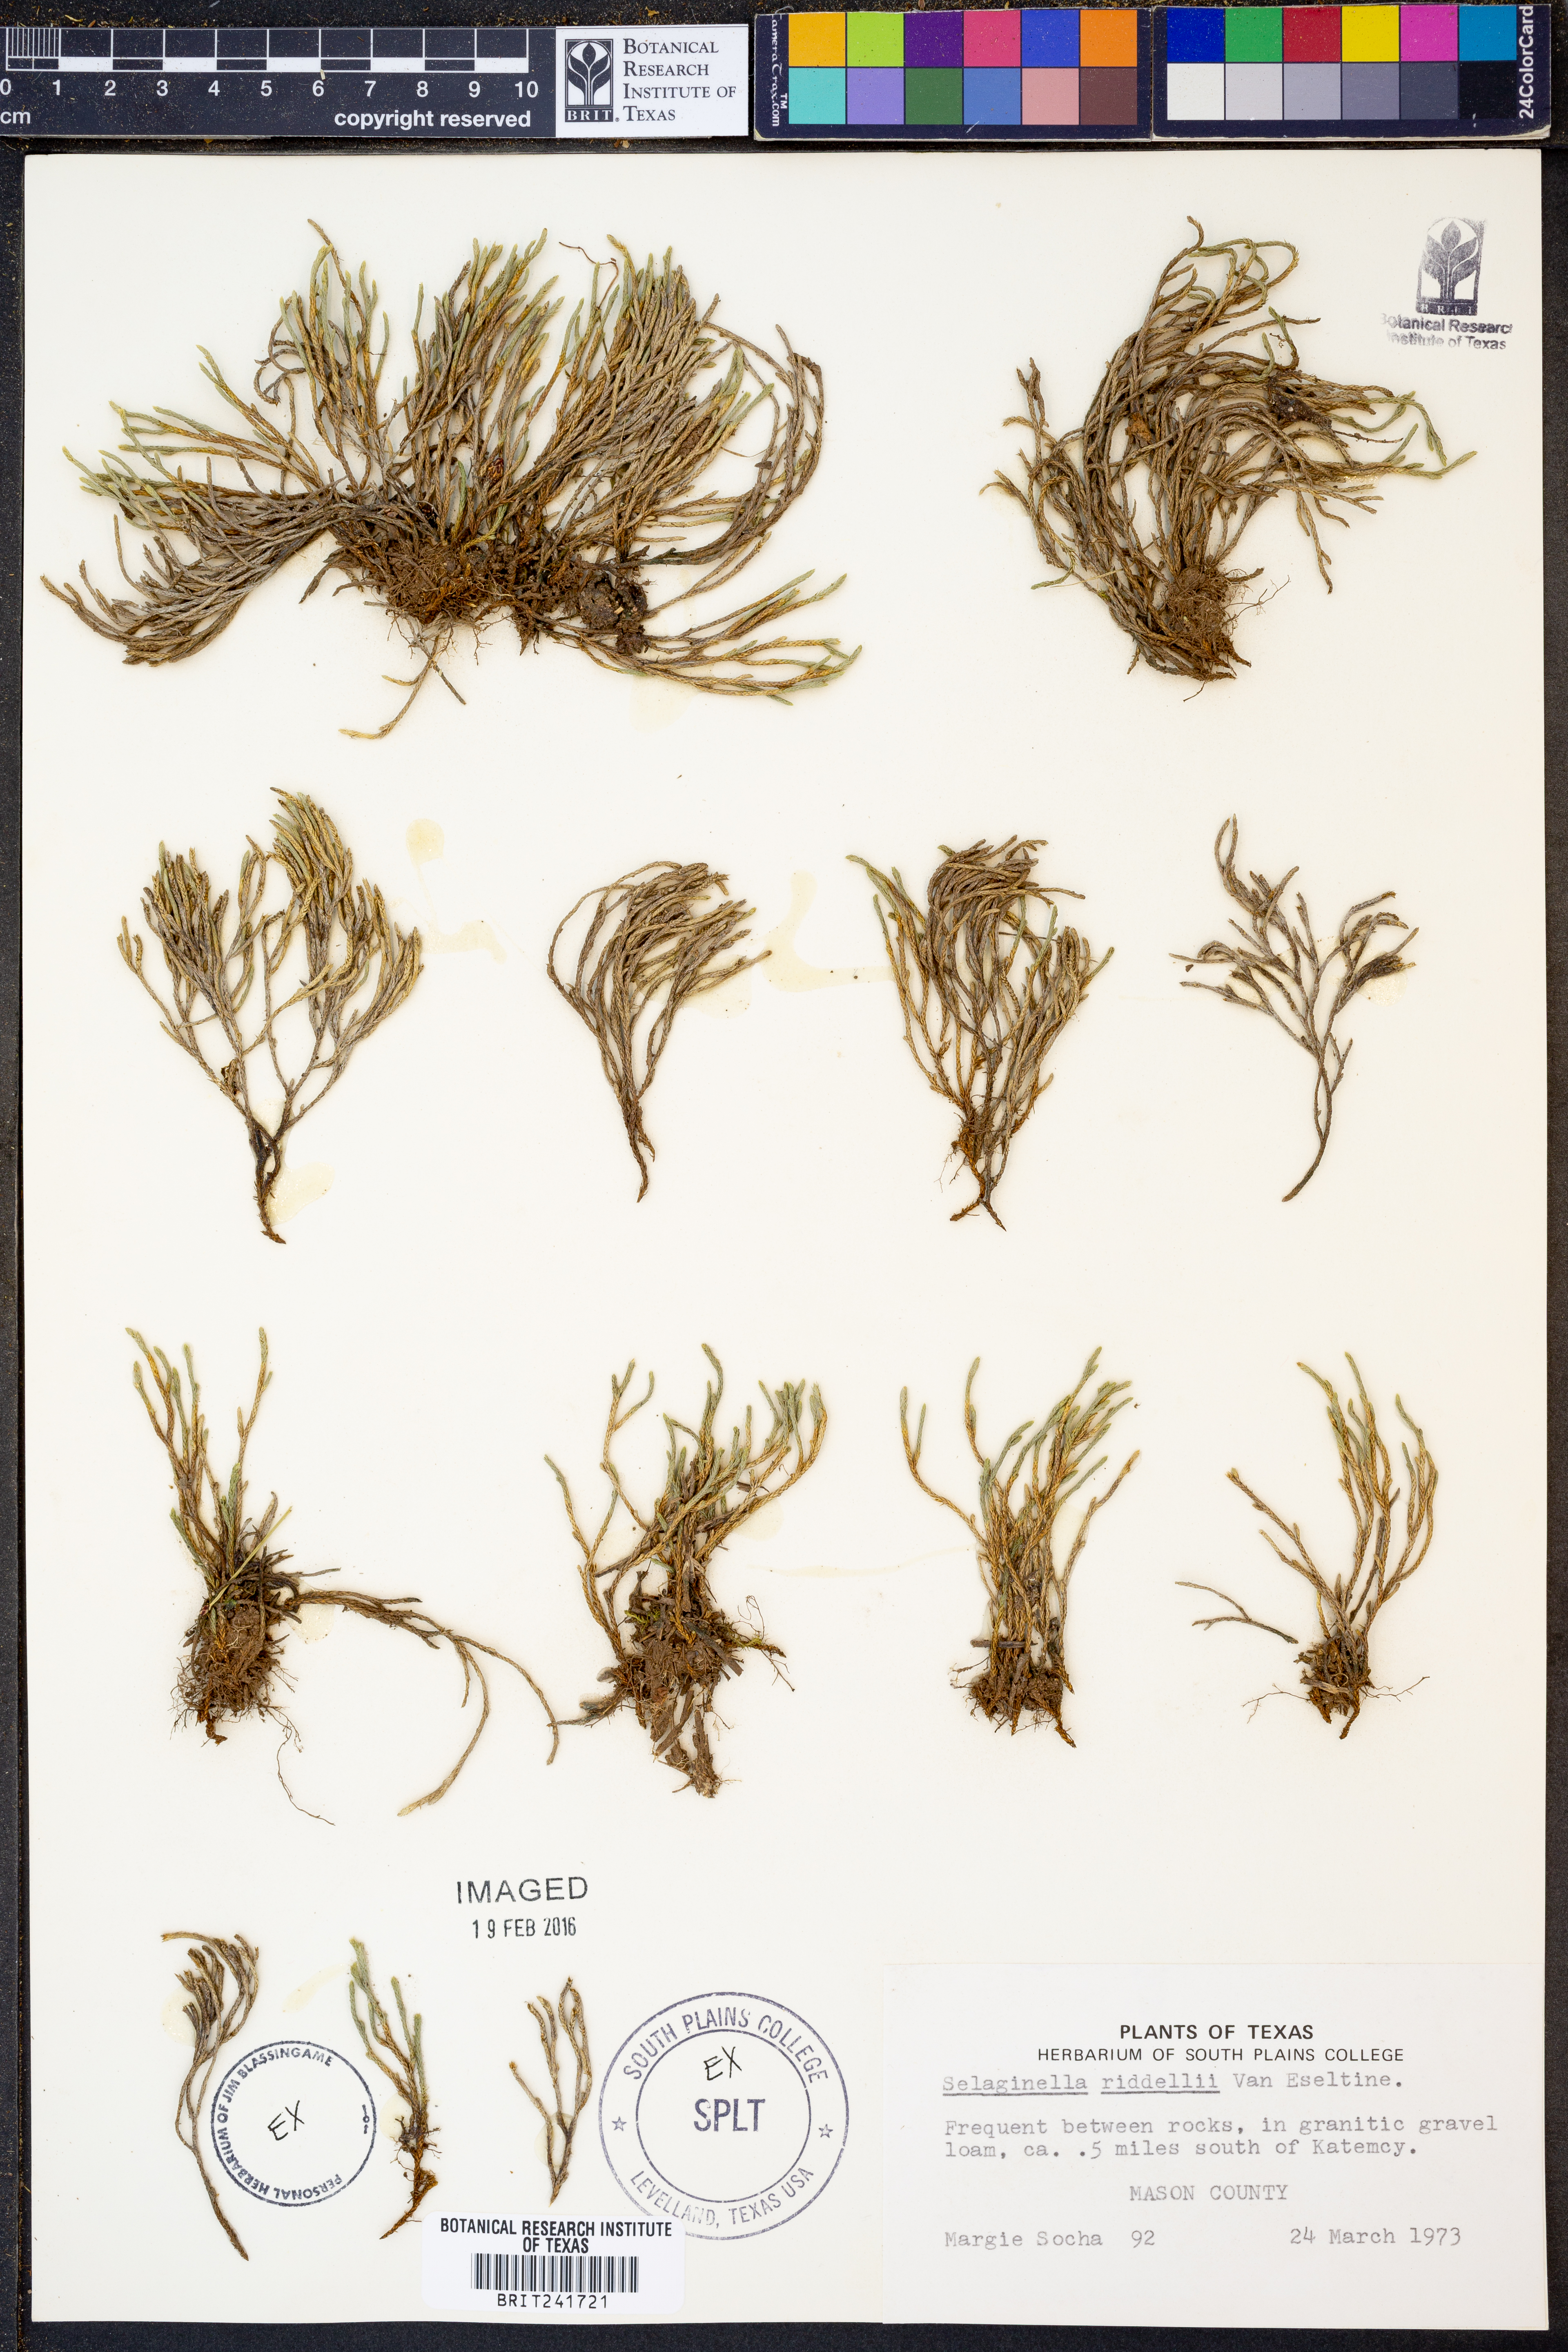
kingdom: Plantae
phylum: Tracheophyta
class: Lycopodiopsida
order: Selaginellales
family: Selaginellaceae
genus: Selaginella
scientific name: Selaginella corallina
